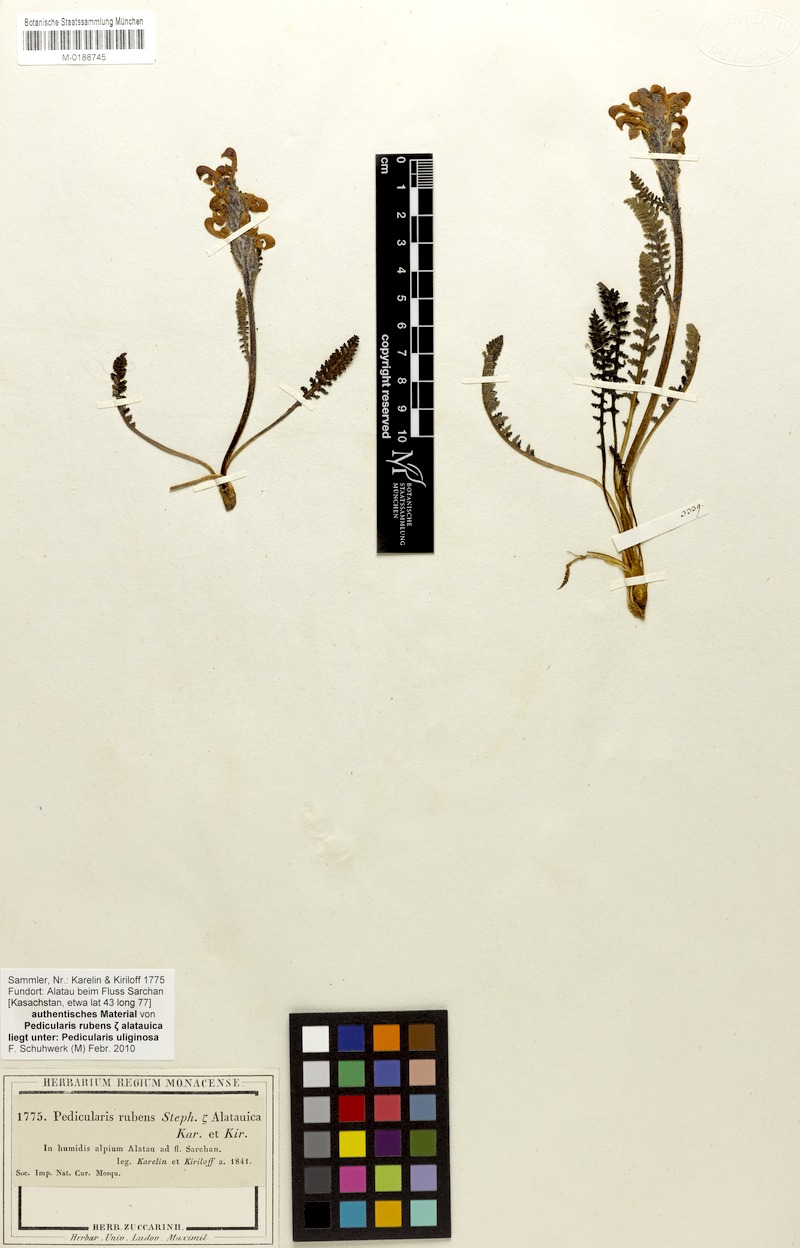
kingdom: Plantae
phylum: Tracheophyta
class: Magnoliopsida
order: Lamiales
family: Orobanchaceae
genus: Pedicularis
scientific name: Pedicularis uliginosa
